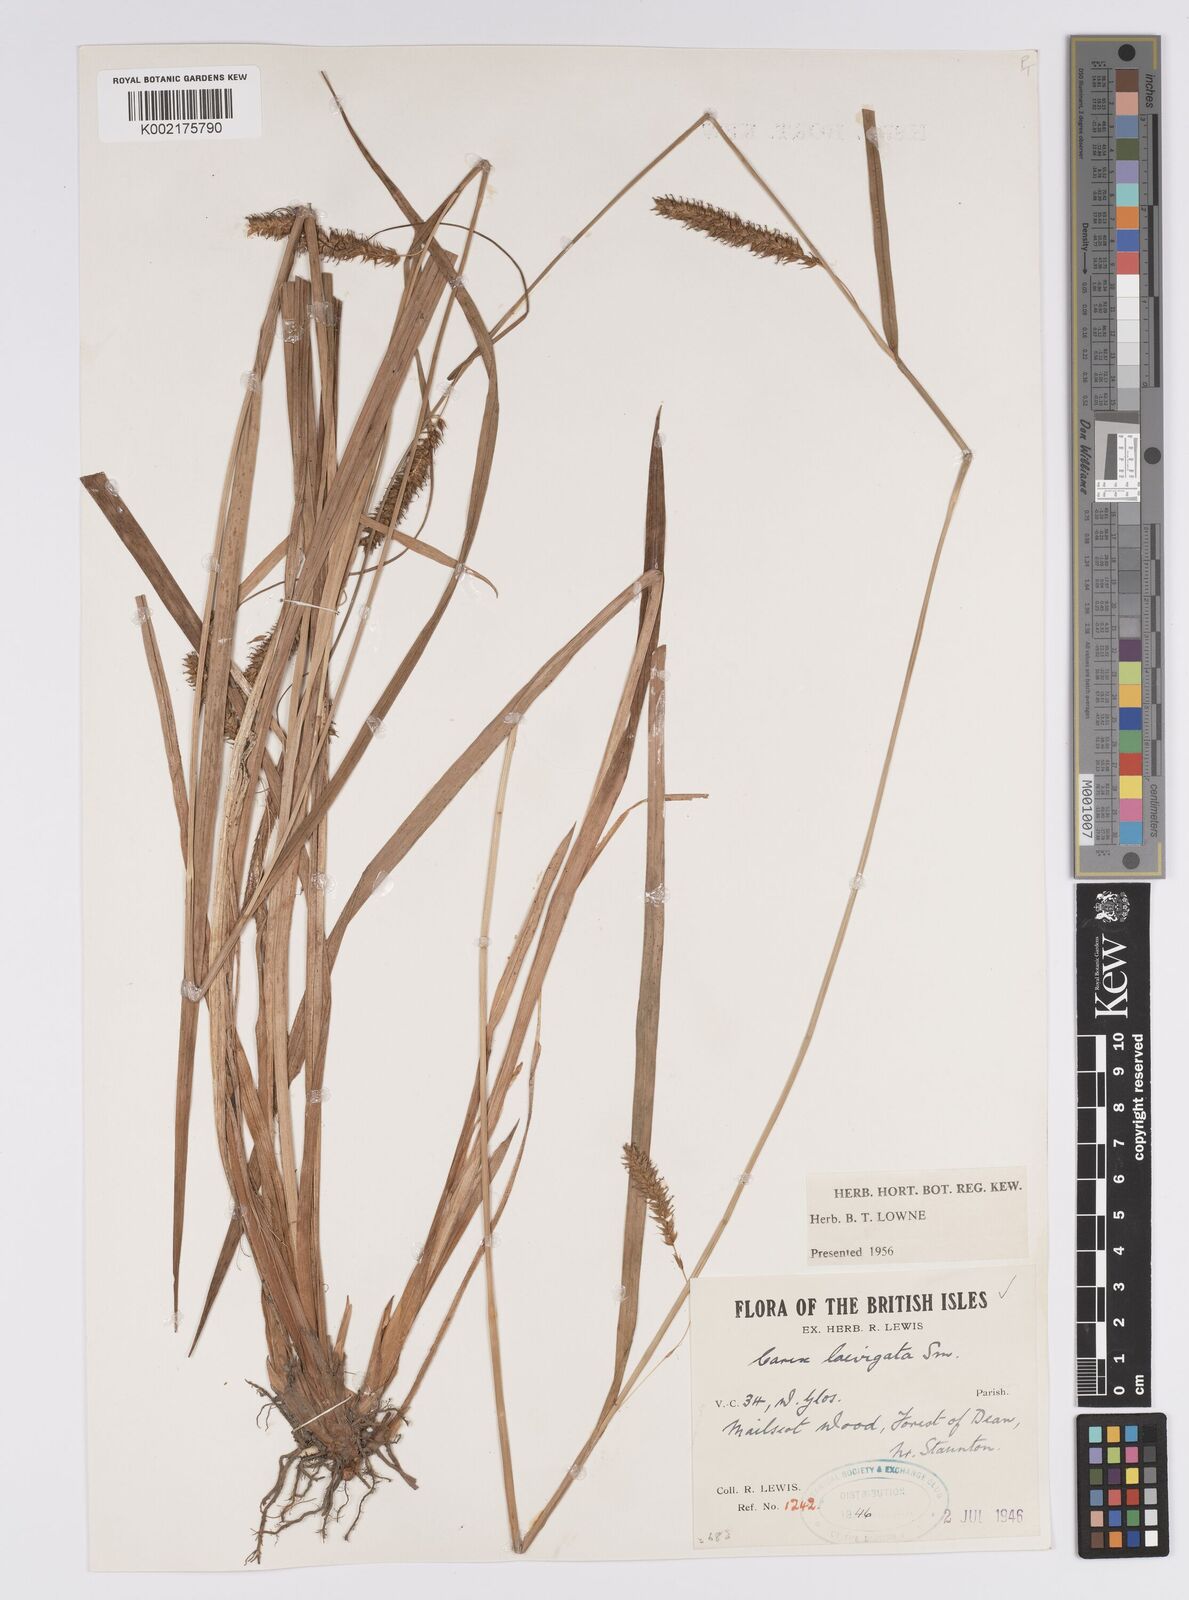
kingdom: Plantae
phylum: Tracheophyta
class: Liliopsida
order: Poales
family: Cyperaceae
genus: Carex
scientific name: Carex laevigata
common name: Smooth-stalked sedge
